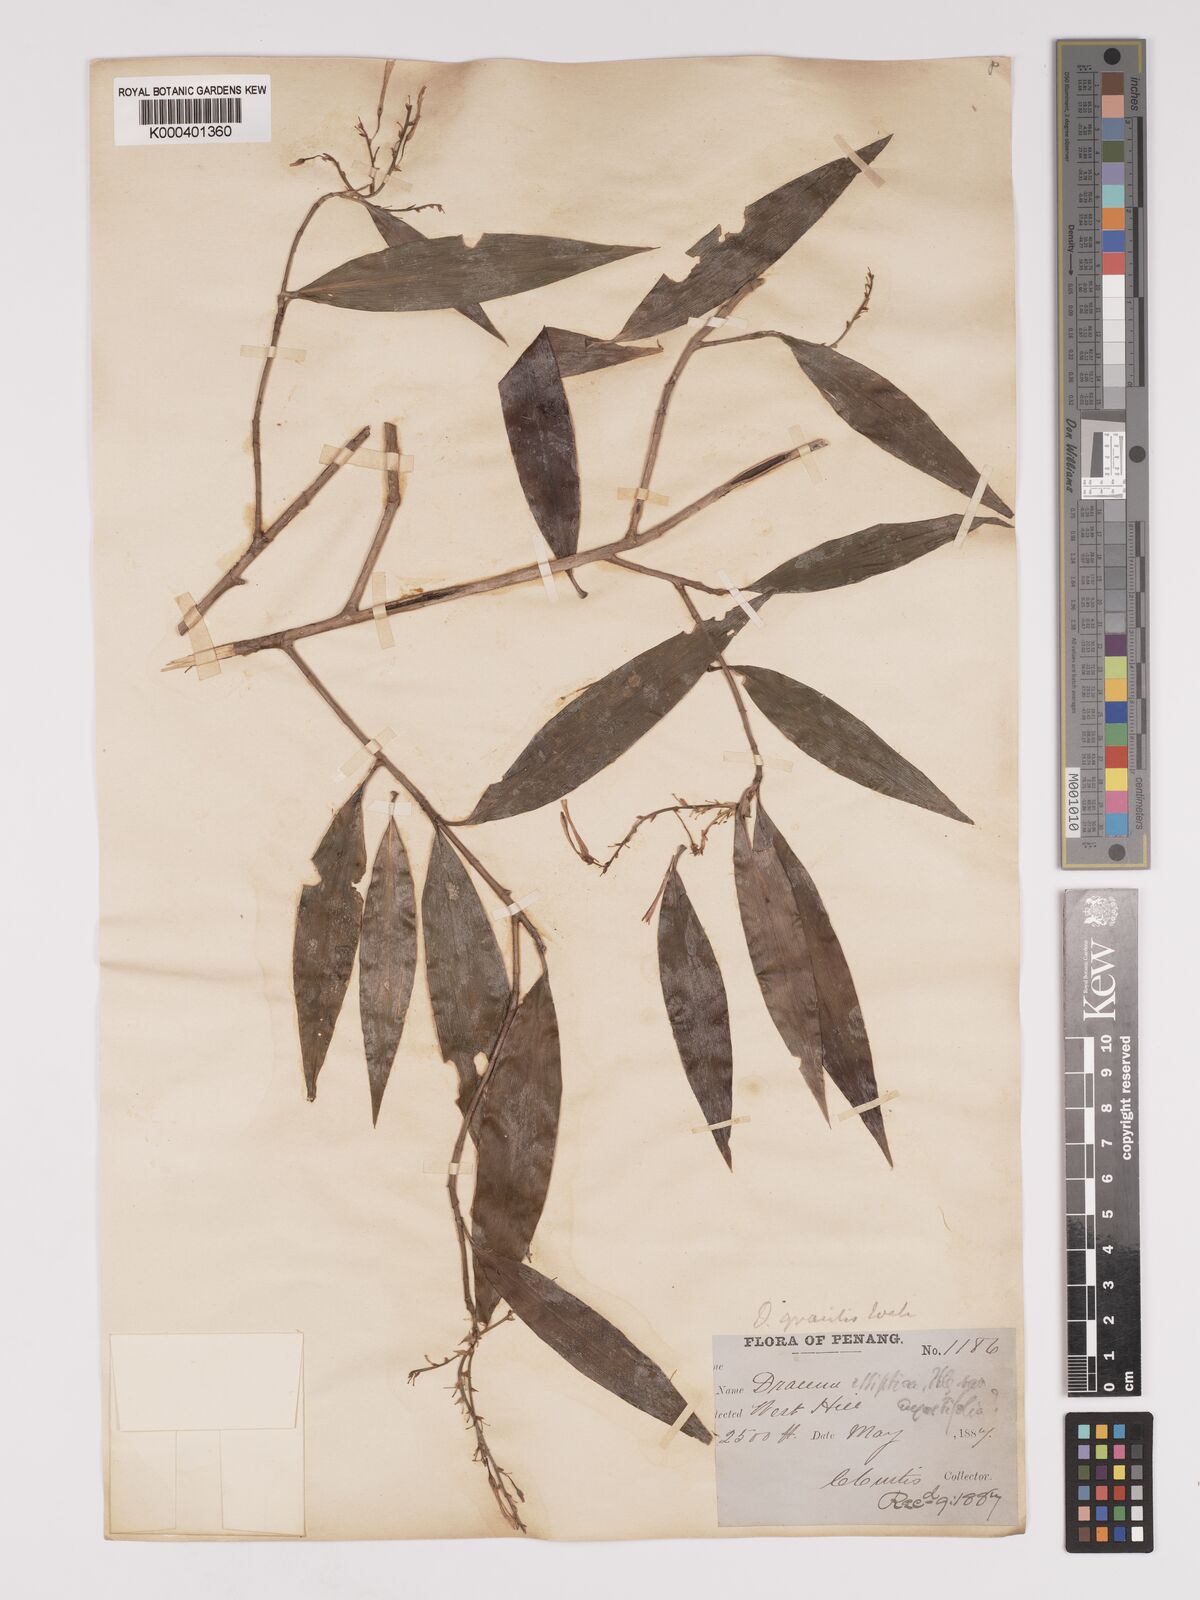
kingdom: Plantae
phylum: Tracheophyta
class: Liliopsida
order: Asparagales
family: Asparagaceae
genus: Dracaena
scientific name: Dracaena elliptica
